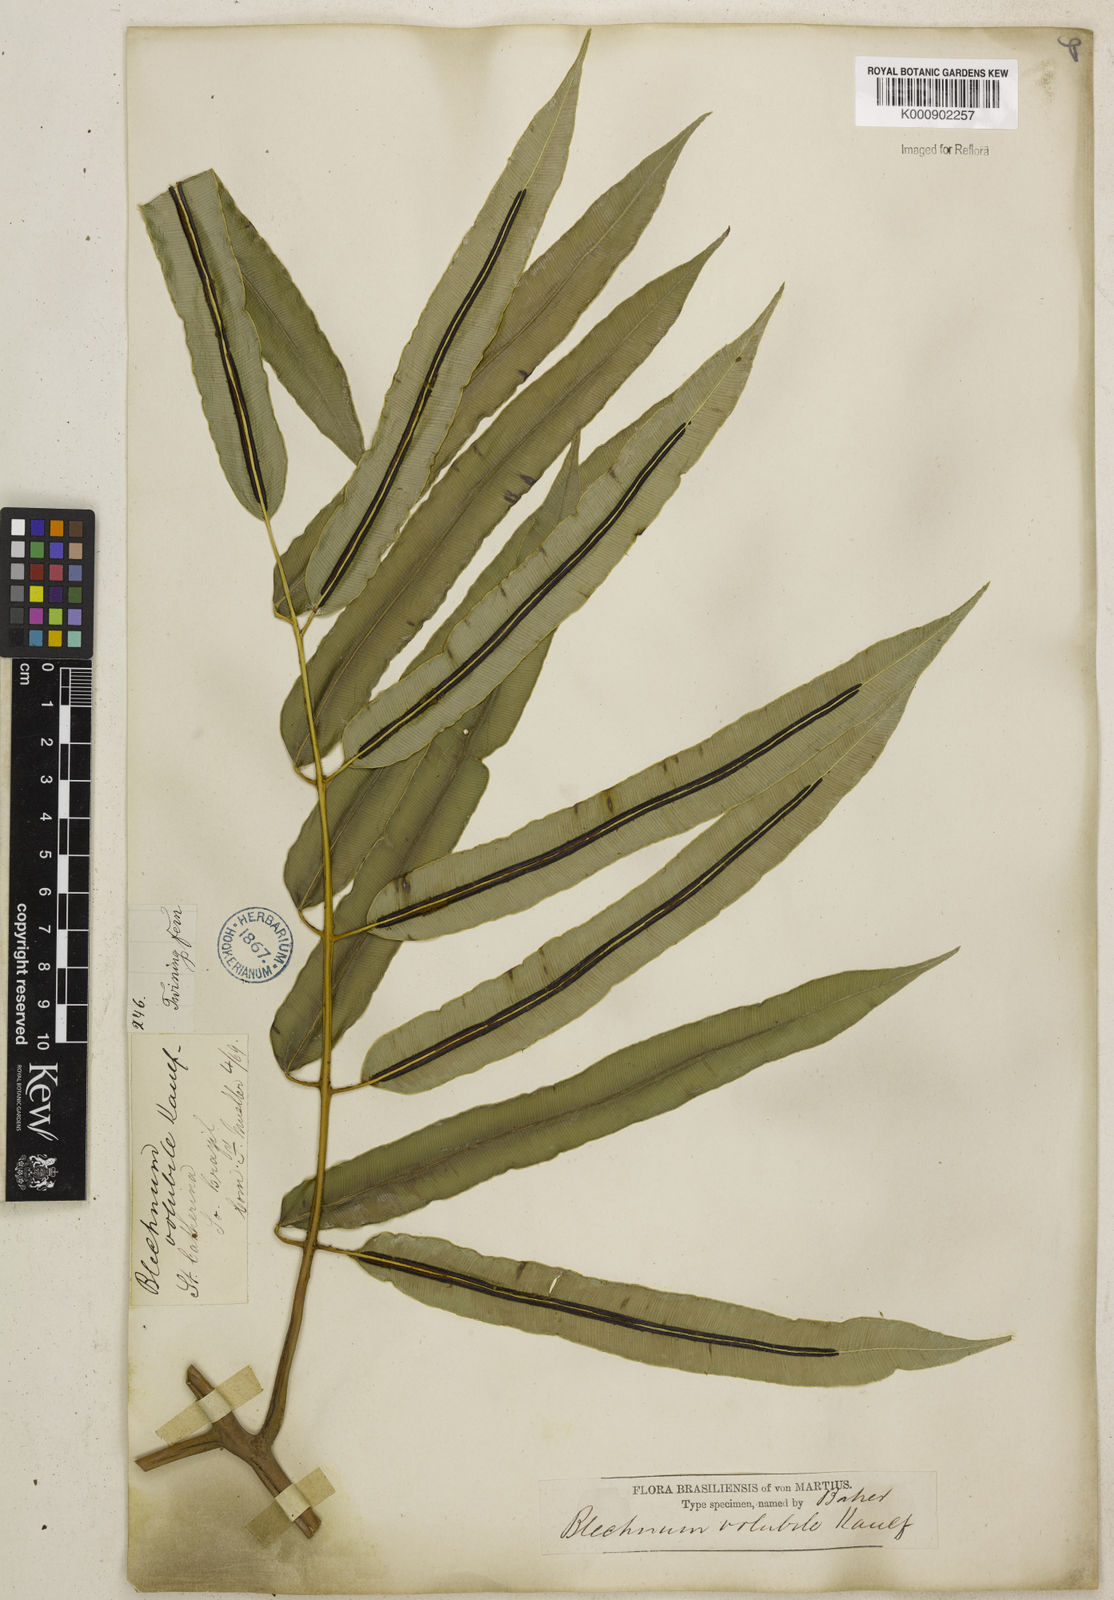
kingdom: Plantae
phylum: Tracheophyta
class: Polypodiopsida
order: Polypodiales
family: Blechnaceae
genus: Salpichlaena
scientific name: Salpichlaena volubilis
